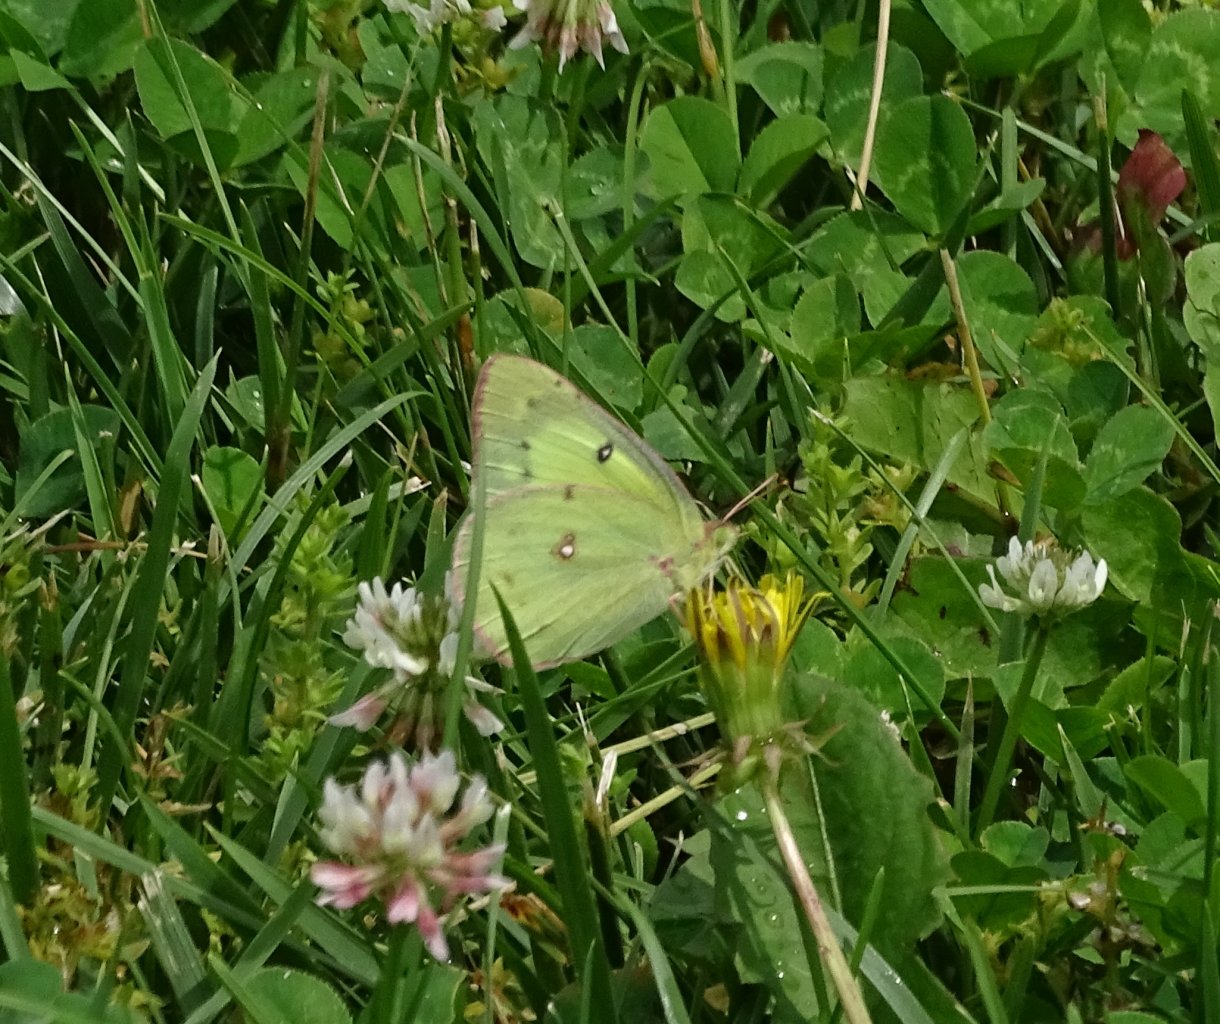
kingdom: Animalia
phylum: Arthropoda
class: Insecta
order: Lepidoptera
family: Pieridae
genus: Colias
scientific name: Colias philodice
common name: Clouded Sulphur
